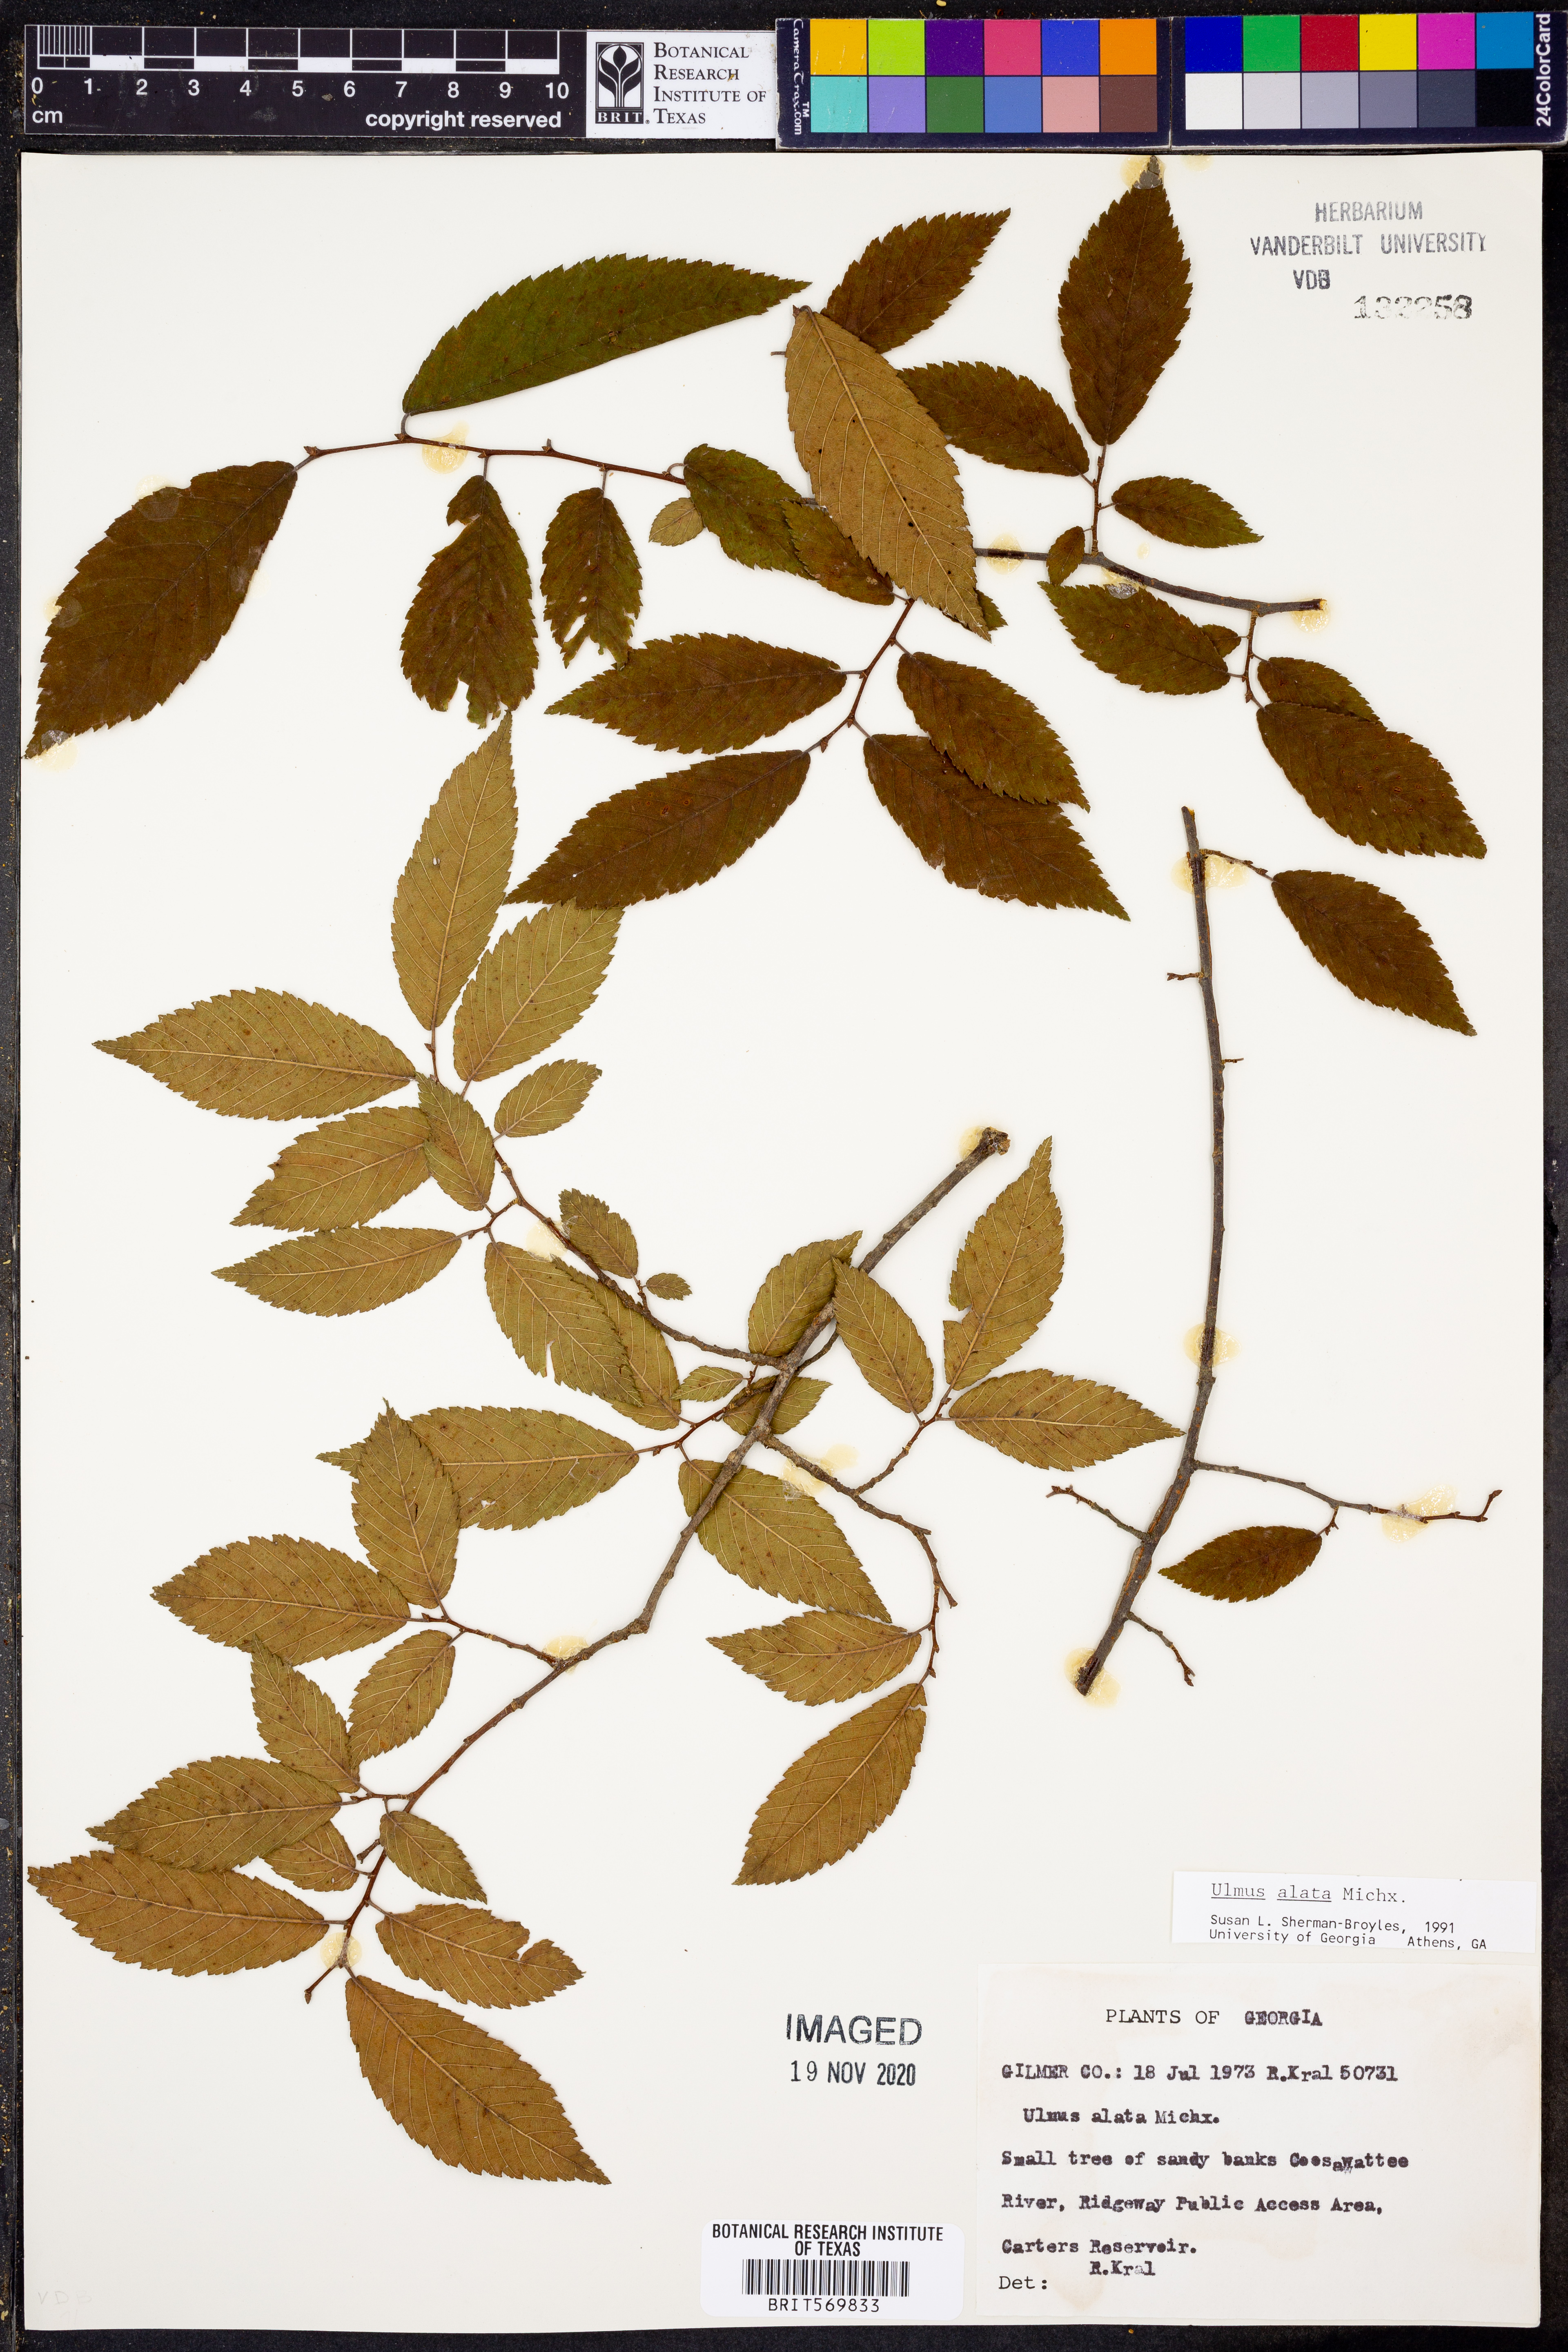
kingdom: Plantae
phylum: Tracheophyta
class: Magnoliopsida
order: Rosales
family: Ulmaceae
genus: Ulmus
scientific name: Ulmus alata
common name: Winged elm
